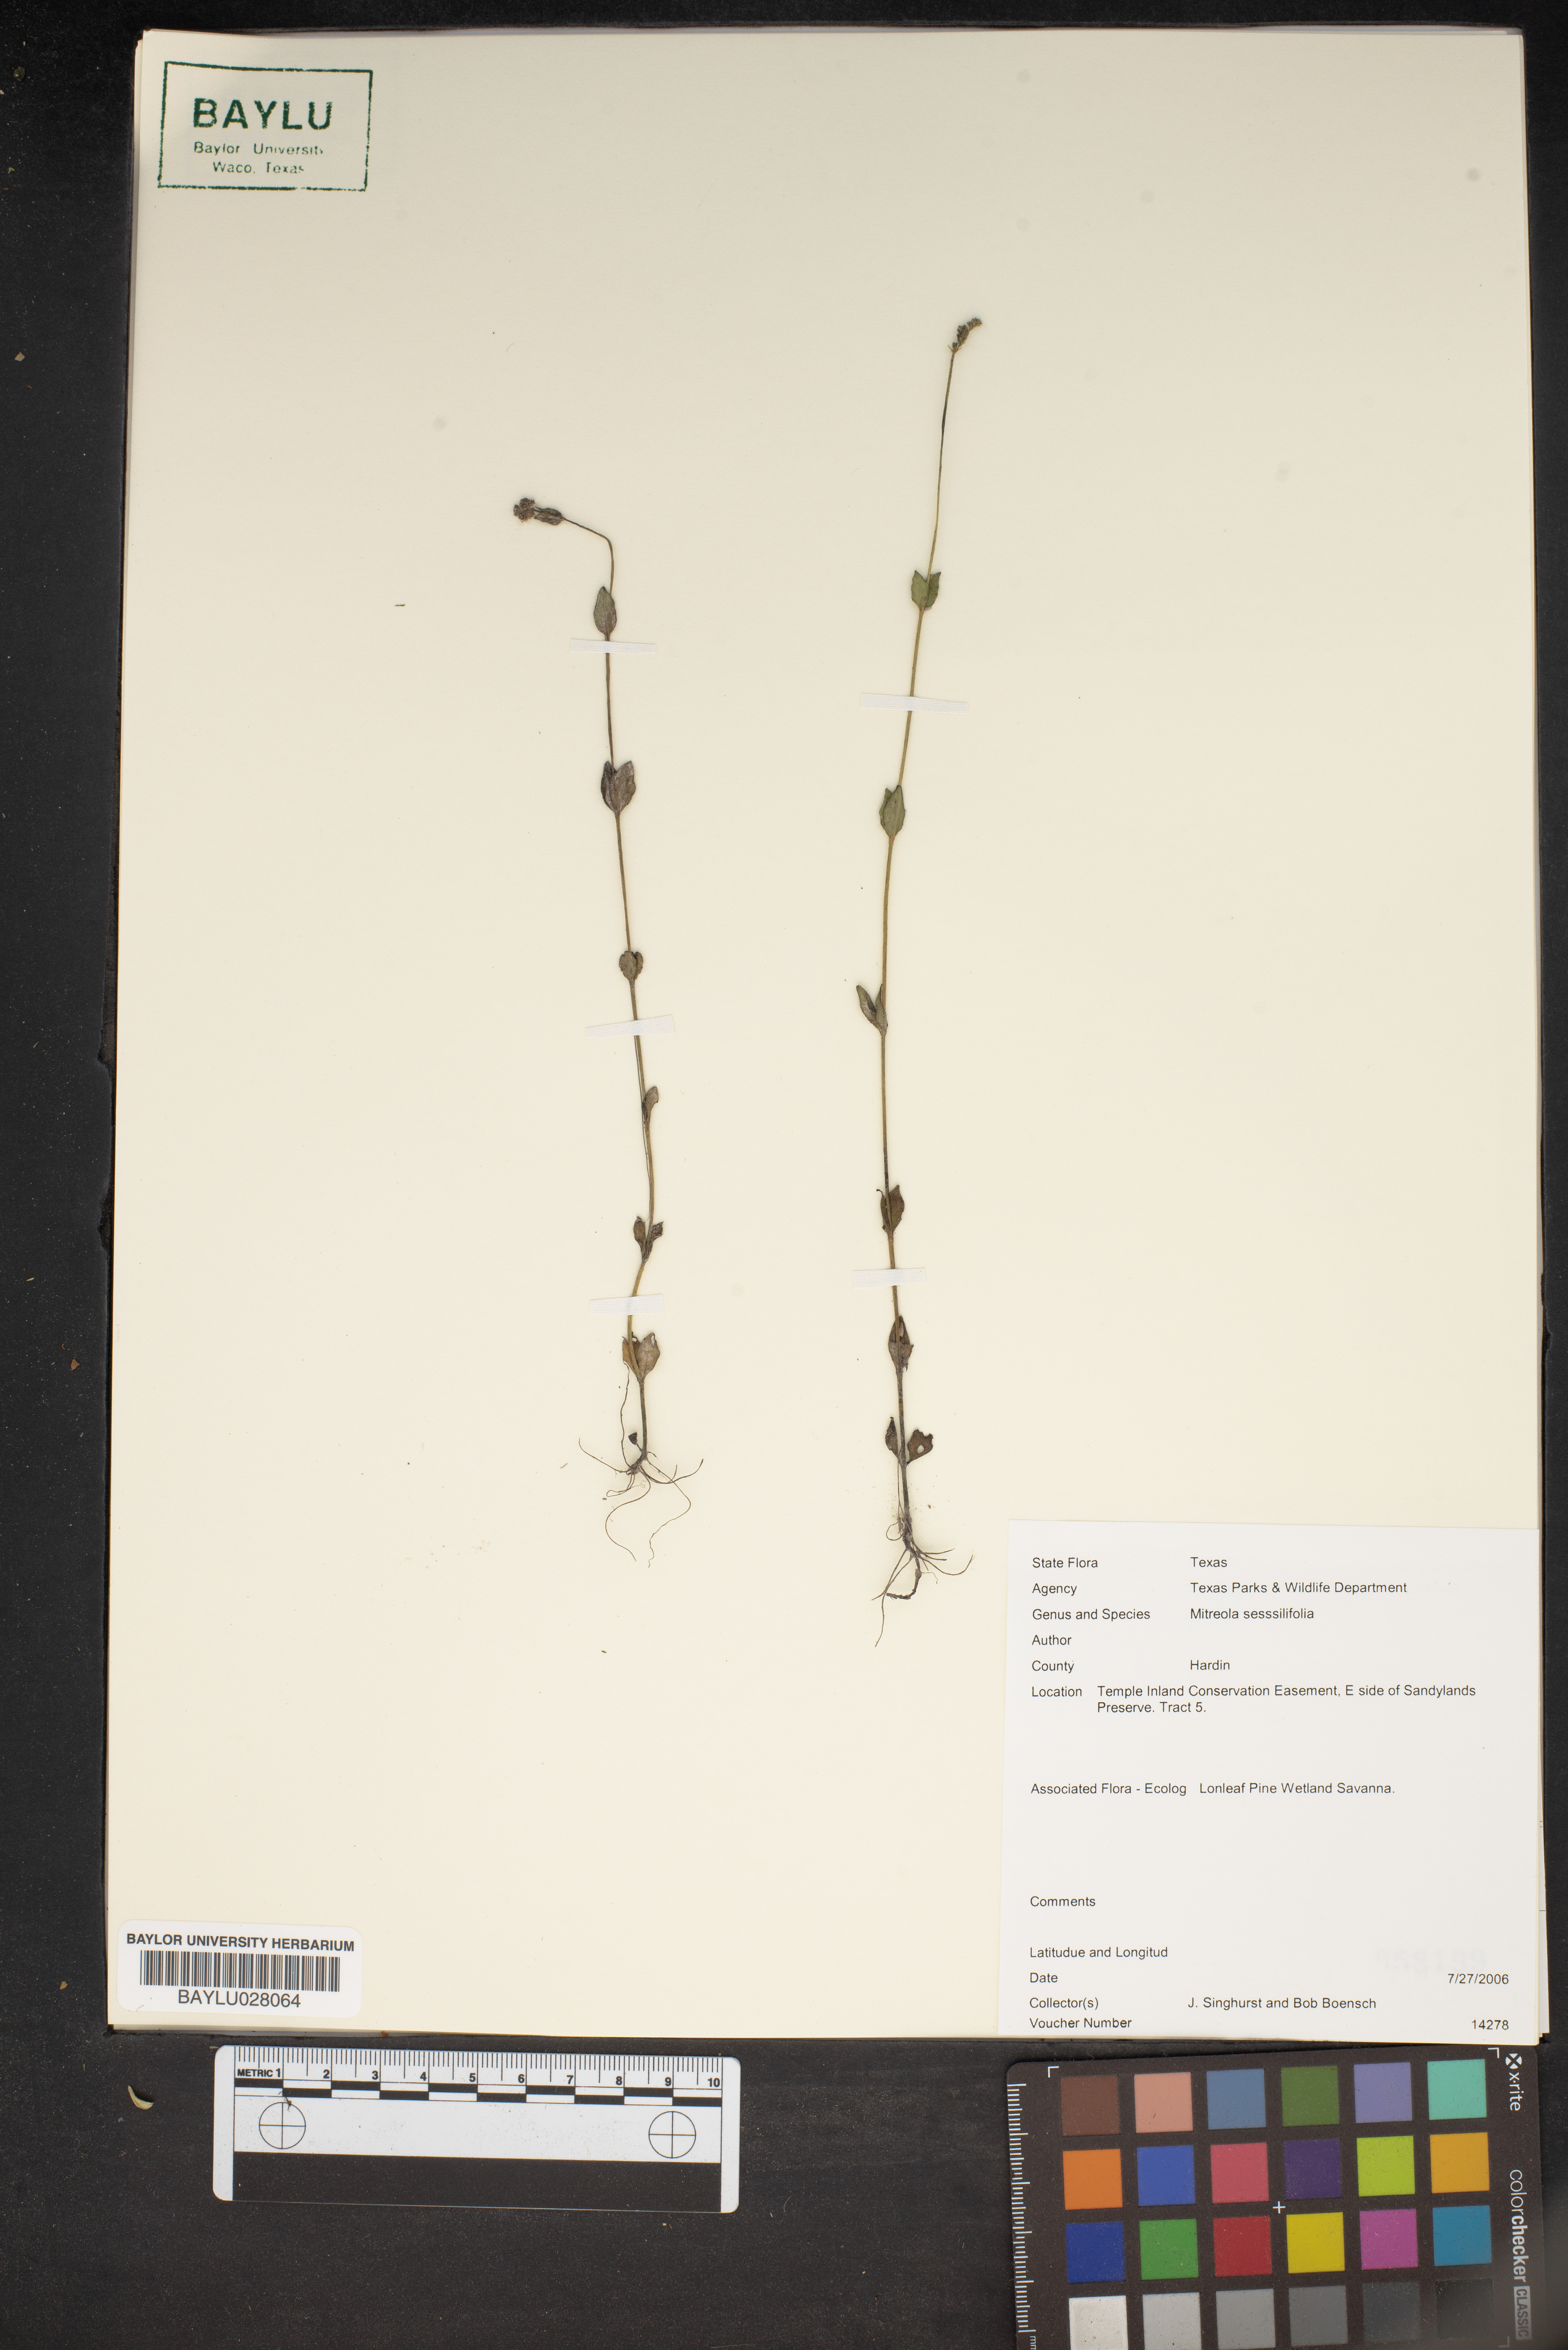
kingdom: Plantae
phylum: Tracheophyta
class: Magnoliopsida
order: Gentianales
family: Loganiaceae
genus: Mitreola
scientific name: Mitreola sessilifolia
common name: Swamp hornpod
